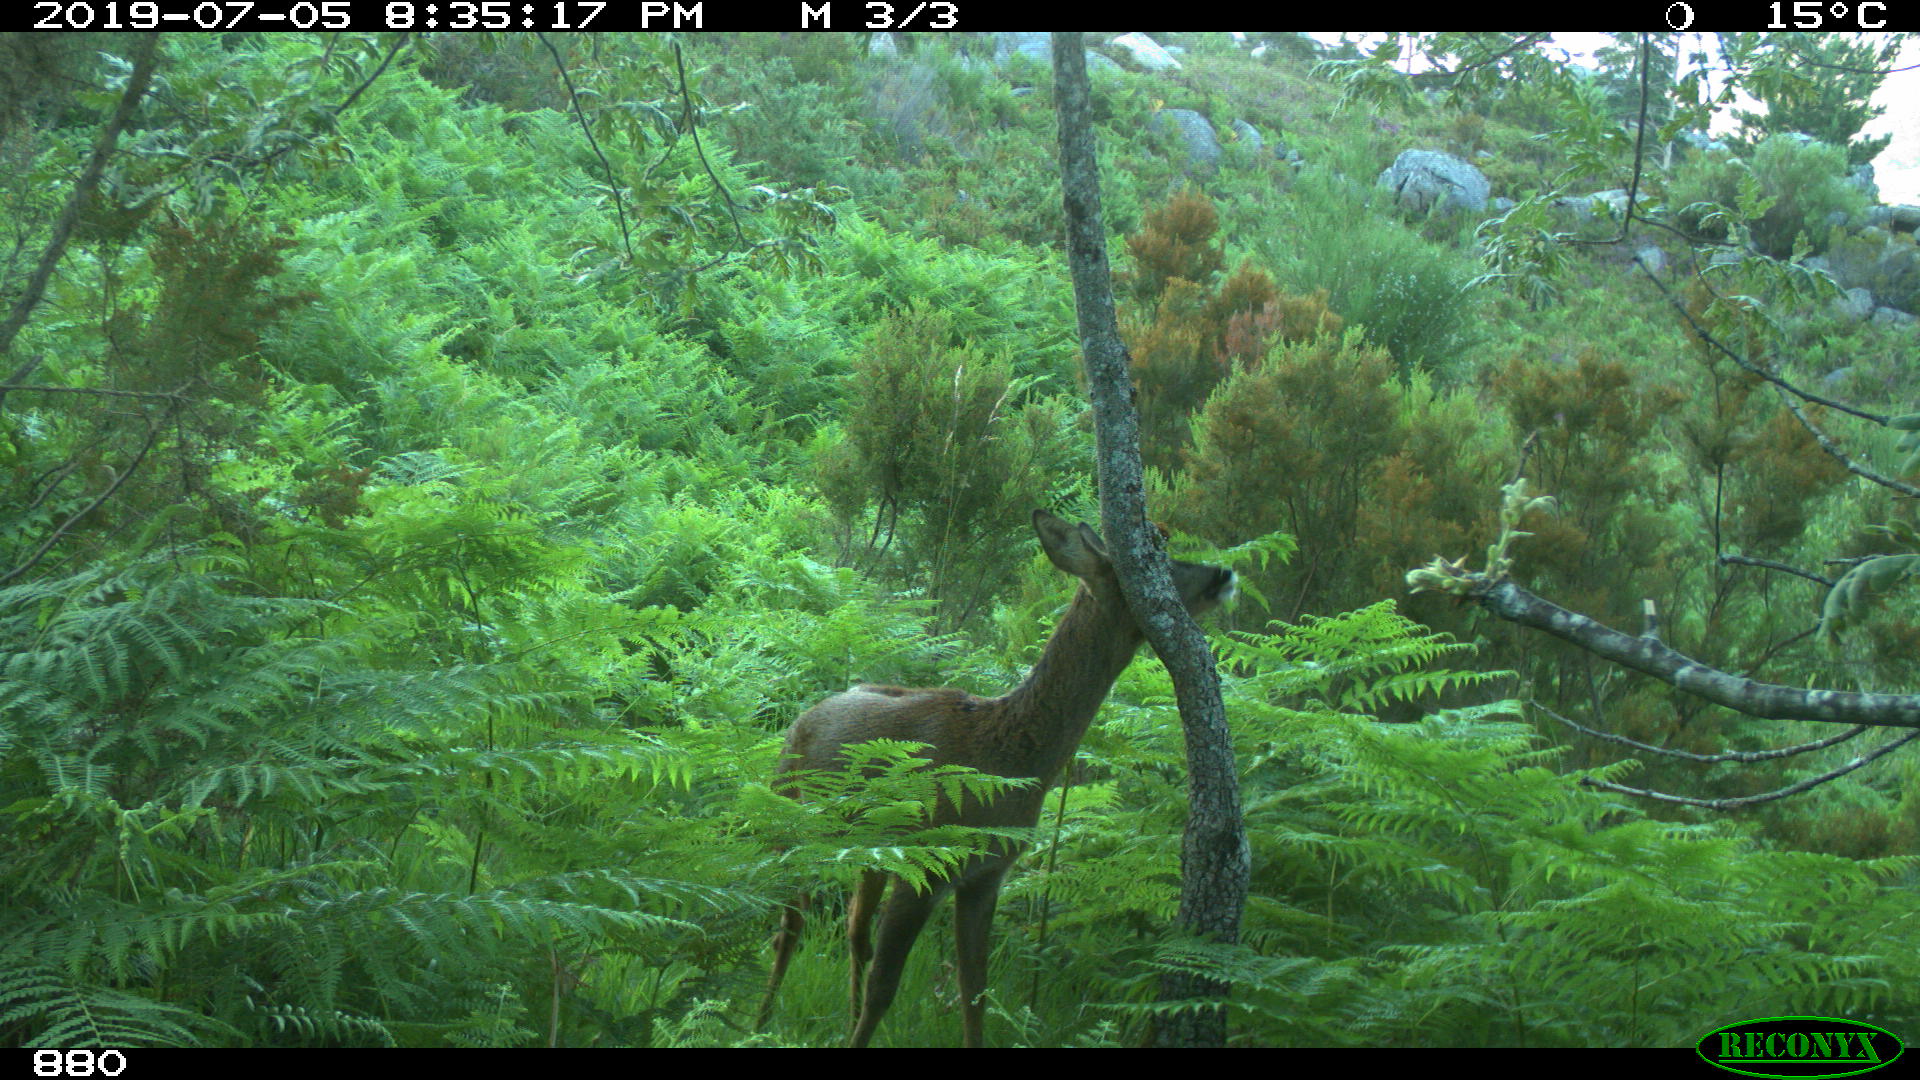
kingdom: Animalia
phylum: Chordata
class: Mammalia
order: Artiodactyla
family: Cervidae
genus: Capreolus
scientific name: Capreolus capreolus
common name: Western roe deer
